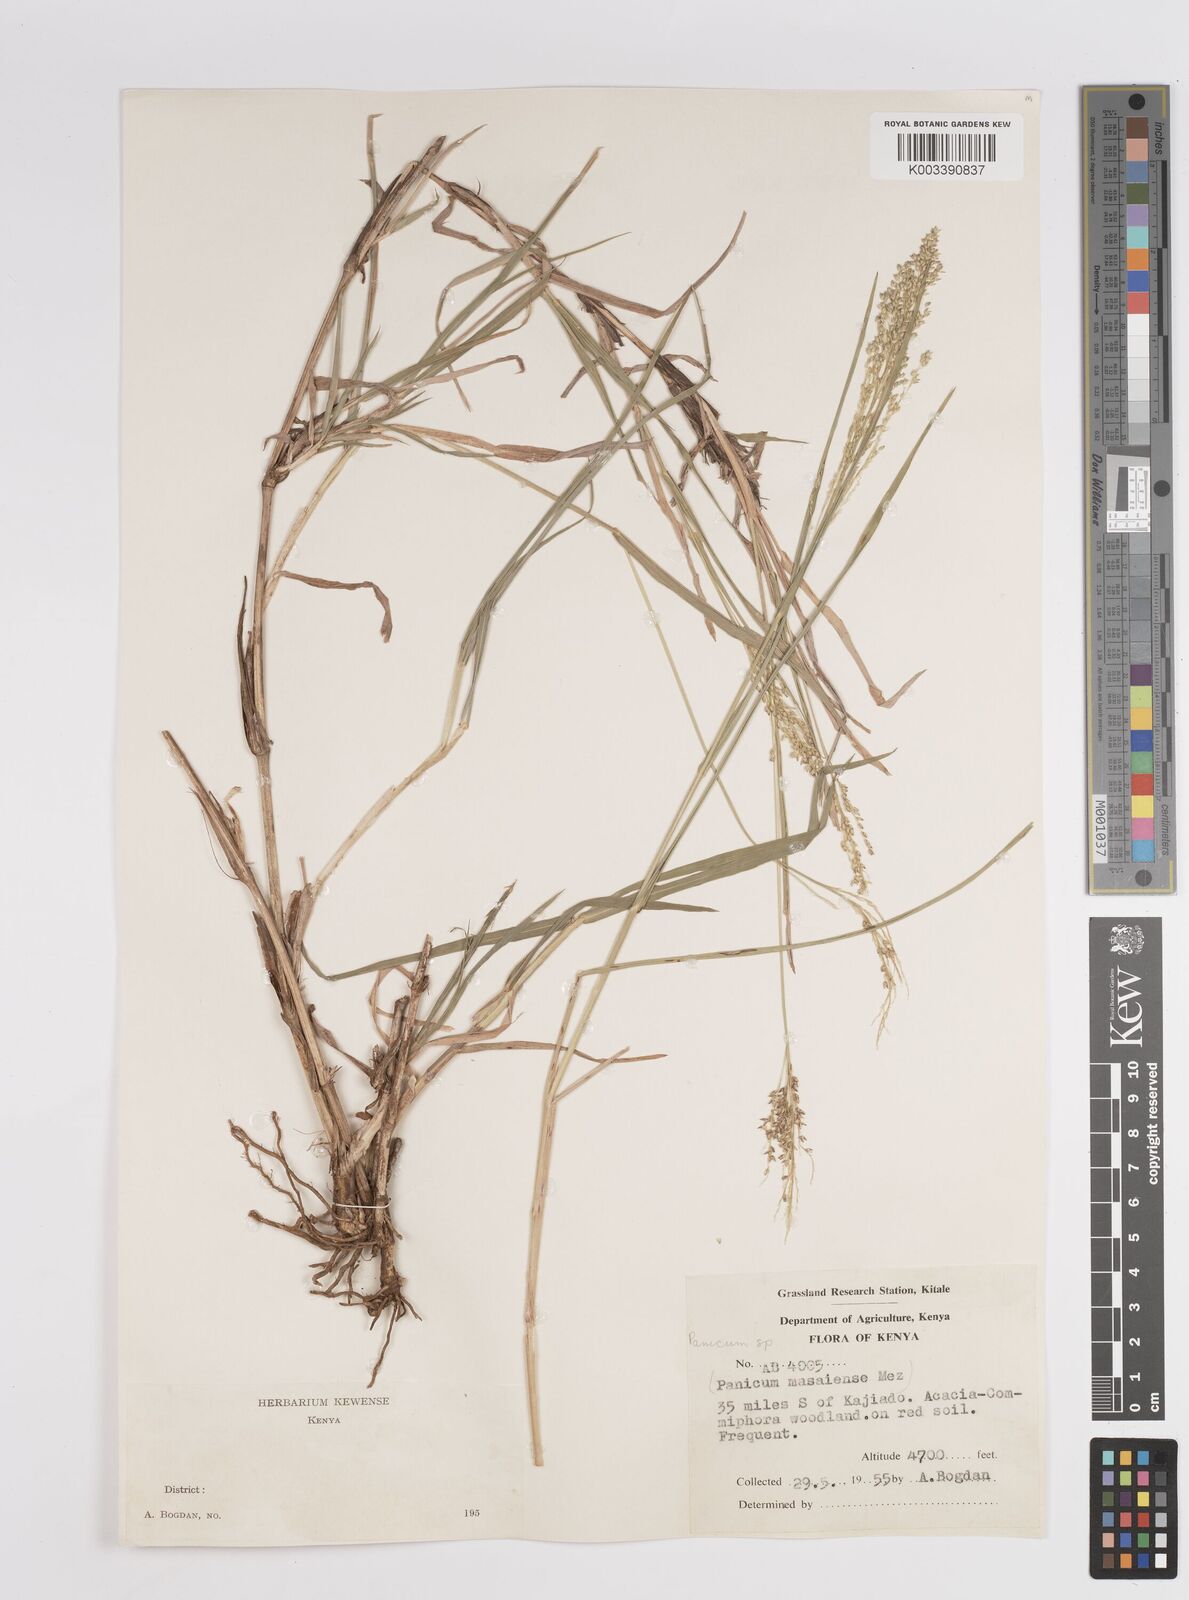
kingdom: Plantae
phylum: Tracheophyta
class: Liliopsida
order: Poales
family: Poaceae
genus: Panicum
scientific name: Panicum coloratum
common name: Kleingrass
